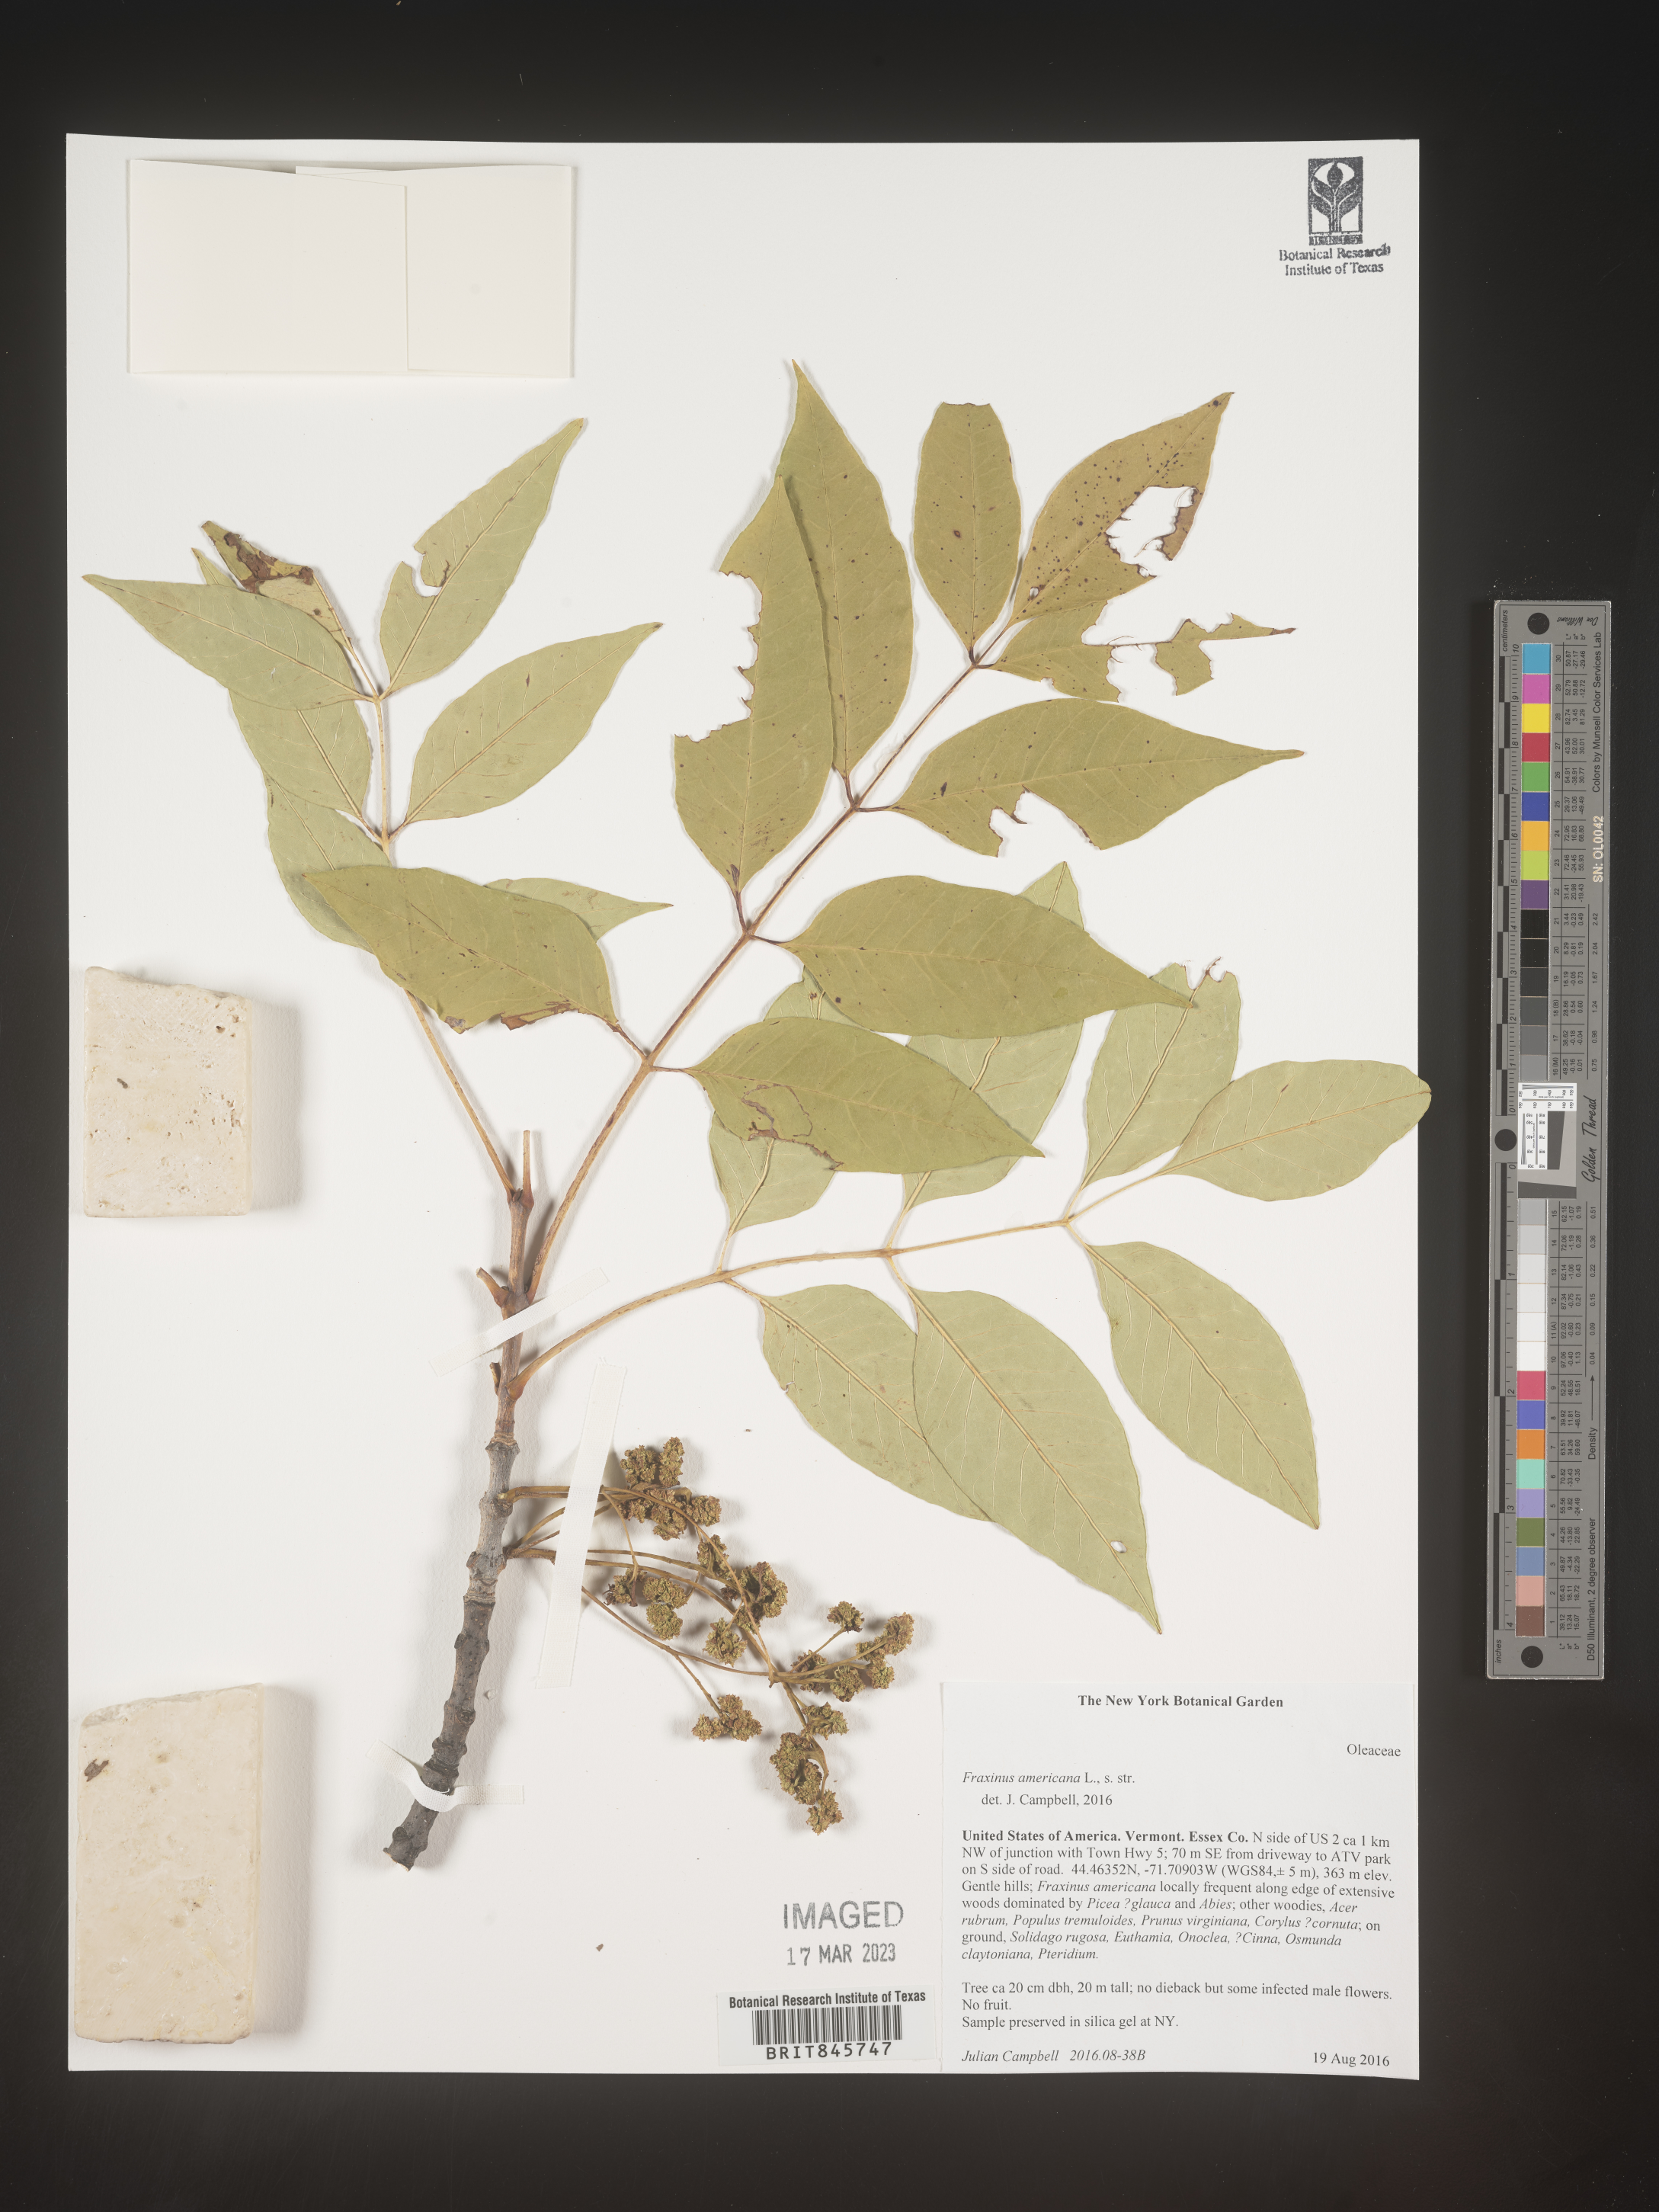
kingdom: Plantae
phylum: Tracheophyta
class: Magnoliopsida
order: Lamiales
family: Oleaceae
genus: Fraxinus
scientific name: Fraxinus americana
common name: White ash
